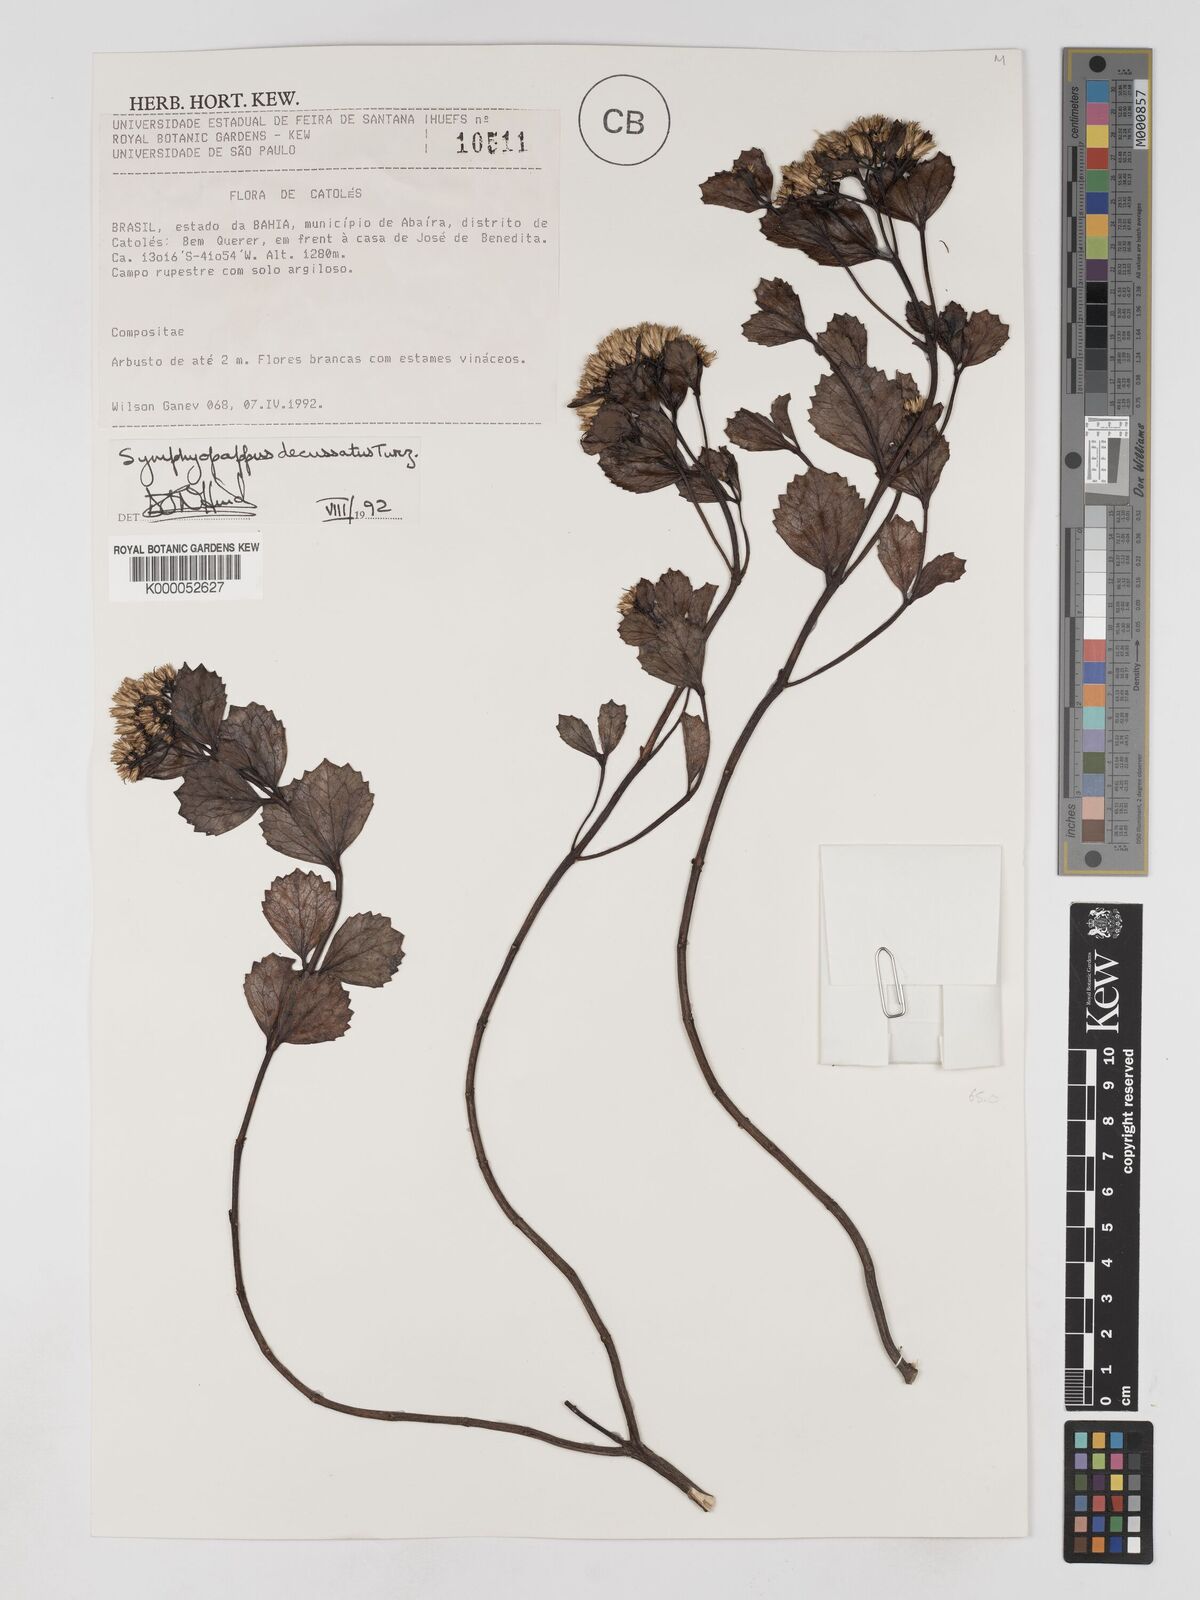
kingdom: Plantae
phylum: Tracheophyta
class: Magnoliopsida
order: Asterales
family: Asteraceae
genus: Symphyopappus
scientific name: Symphyopappus decussatus
